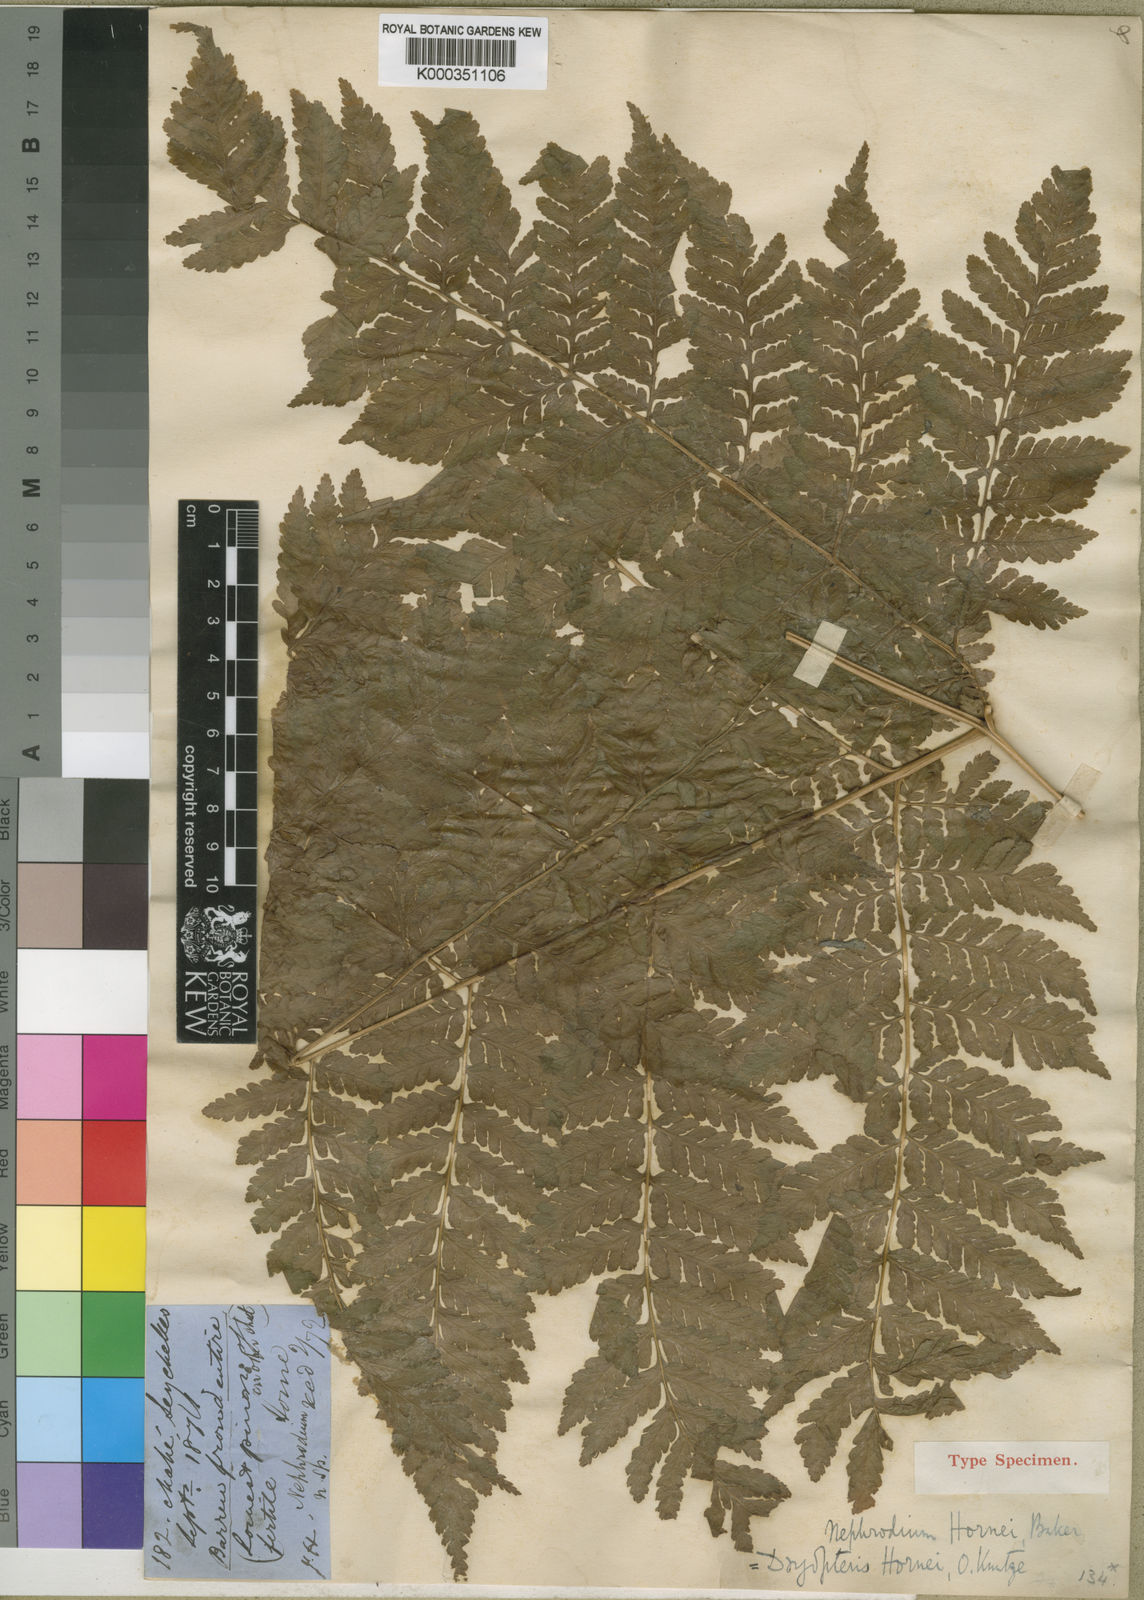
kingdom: Plantae
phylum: Tracheophyta
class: Polypodiopsida
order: Polypodiales
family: Dryopteridaceae
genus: Parapolystichum
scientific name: Parapolystichum hornei
